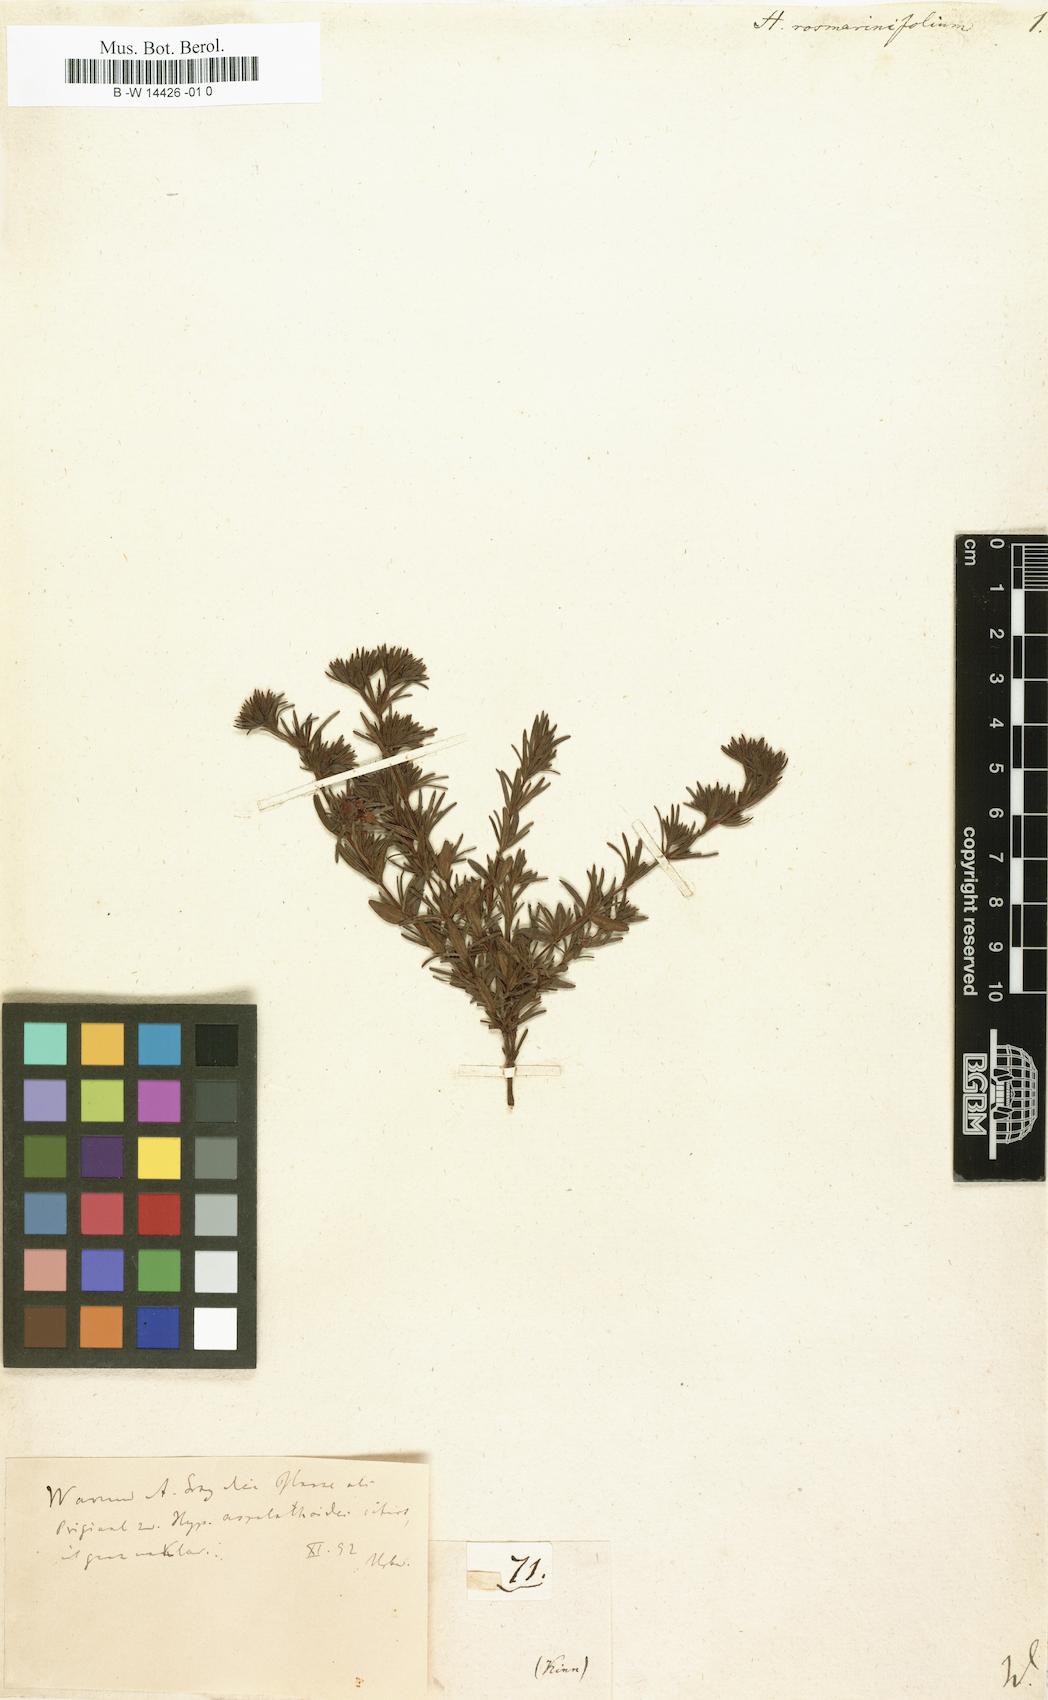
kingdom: Plantae
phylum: Tracheophyta
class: Magnoliopsida
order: Malpighiales
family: Hypericaceae
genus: Hypericum
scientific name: Hypericum
